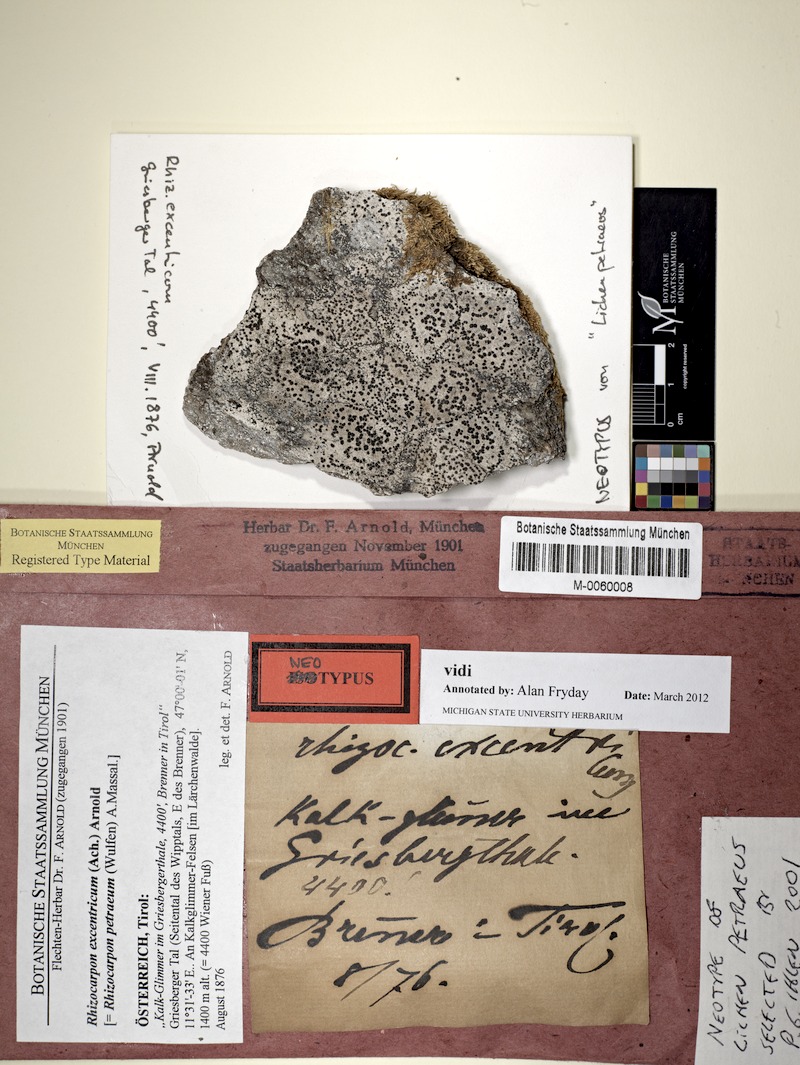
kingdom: Fungi
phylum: Ascomycota
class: Lecanoromycetes
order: Rhizocarpales
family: Rhizocarpaceae
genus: Rhizocarpon
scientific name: Rhizocarpon petraeum
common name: Rock-loving map lichen
